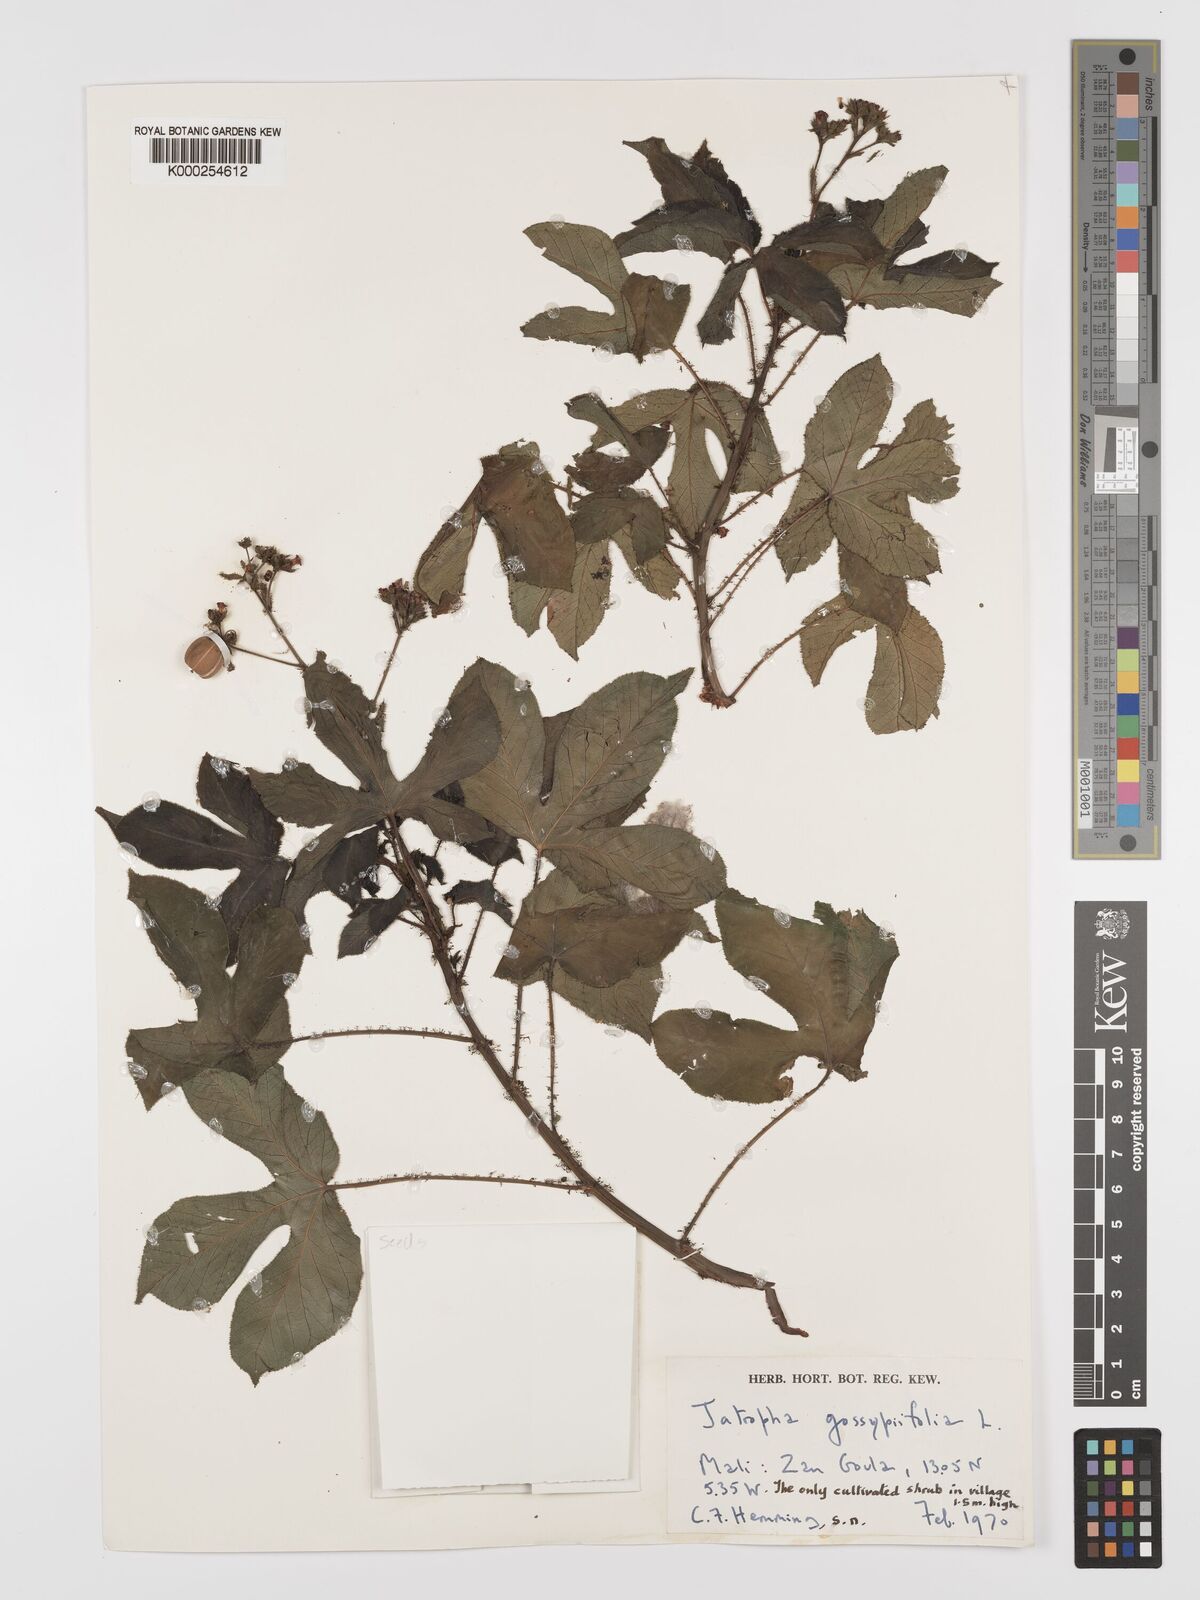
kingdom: Plantae
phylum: Tracheophyta
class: Magnoliopsida
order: Malpighiales
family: Euphorbiaceae
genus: Jatropha
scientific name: Jatropha gossypiifolia
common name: Bellyache bush
